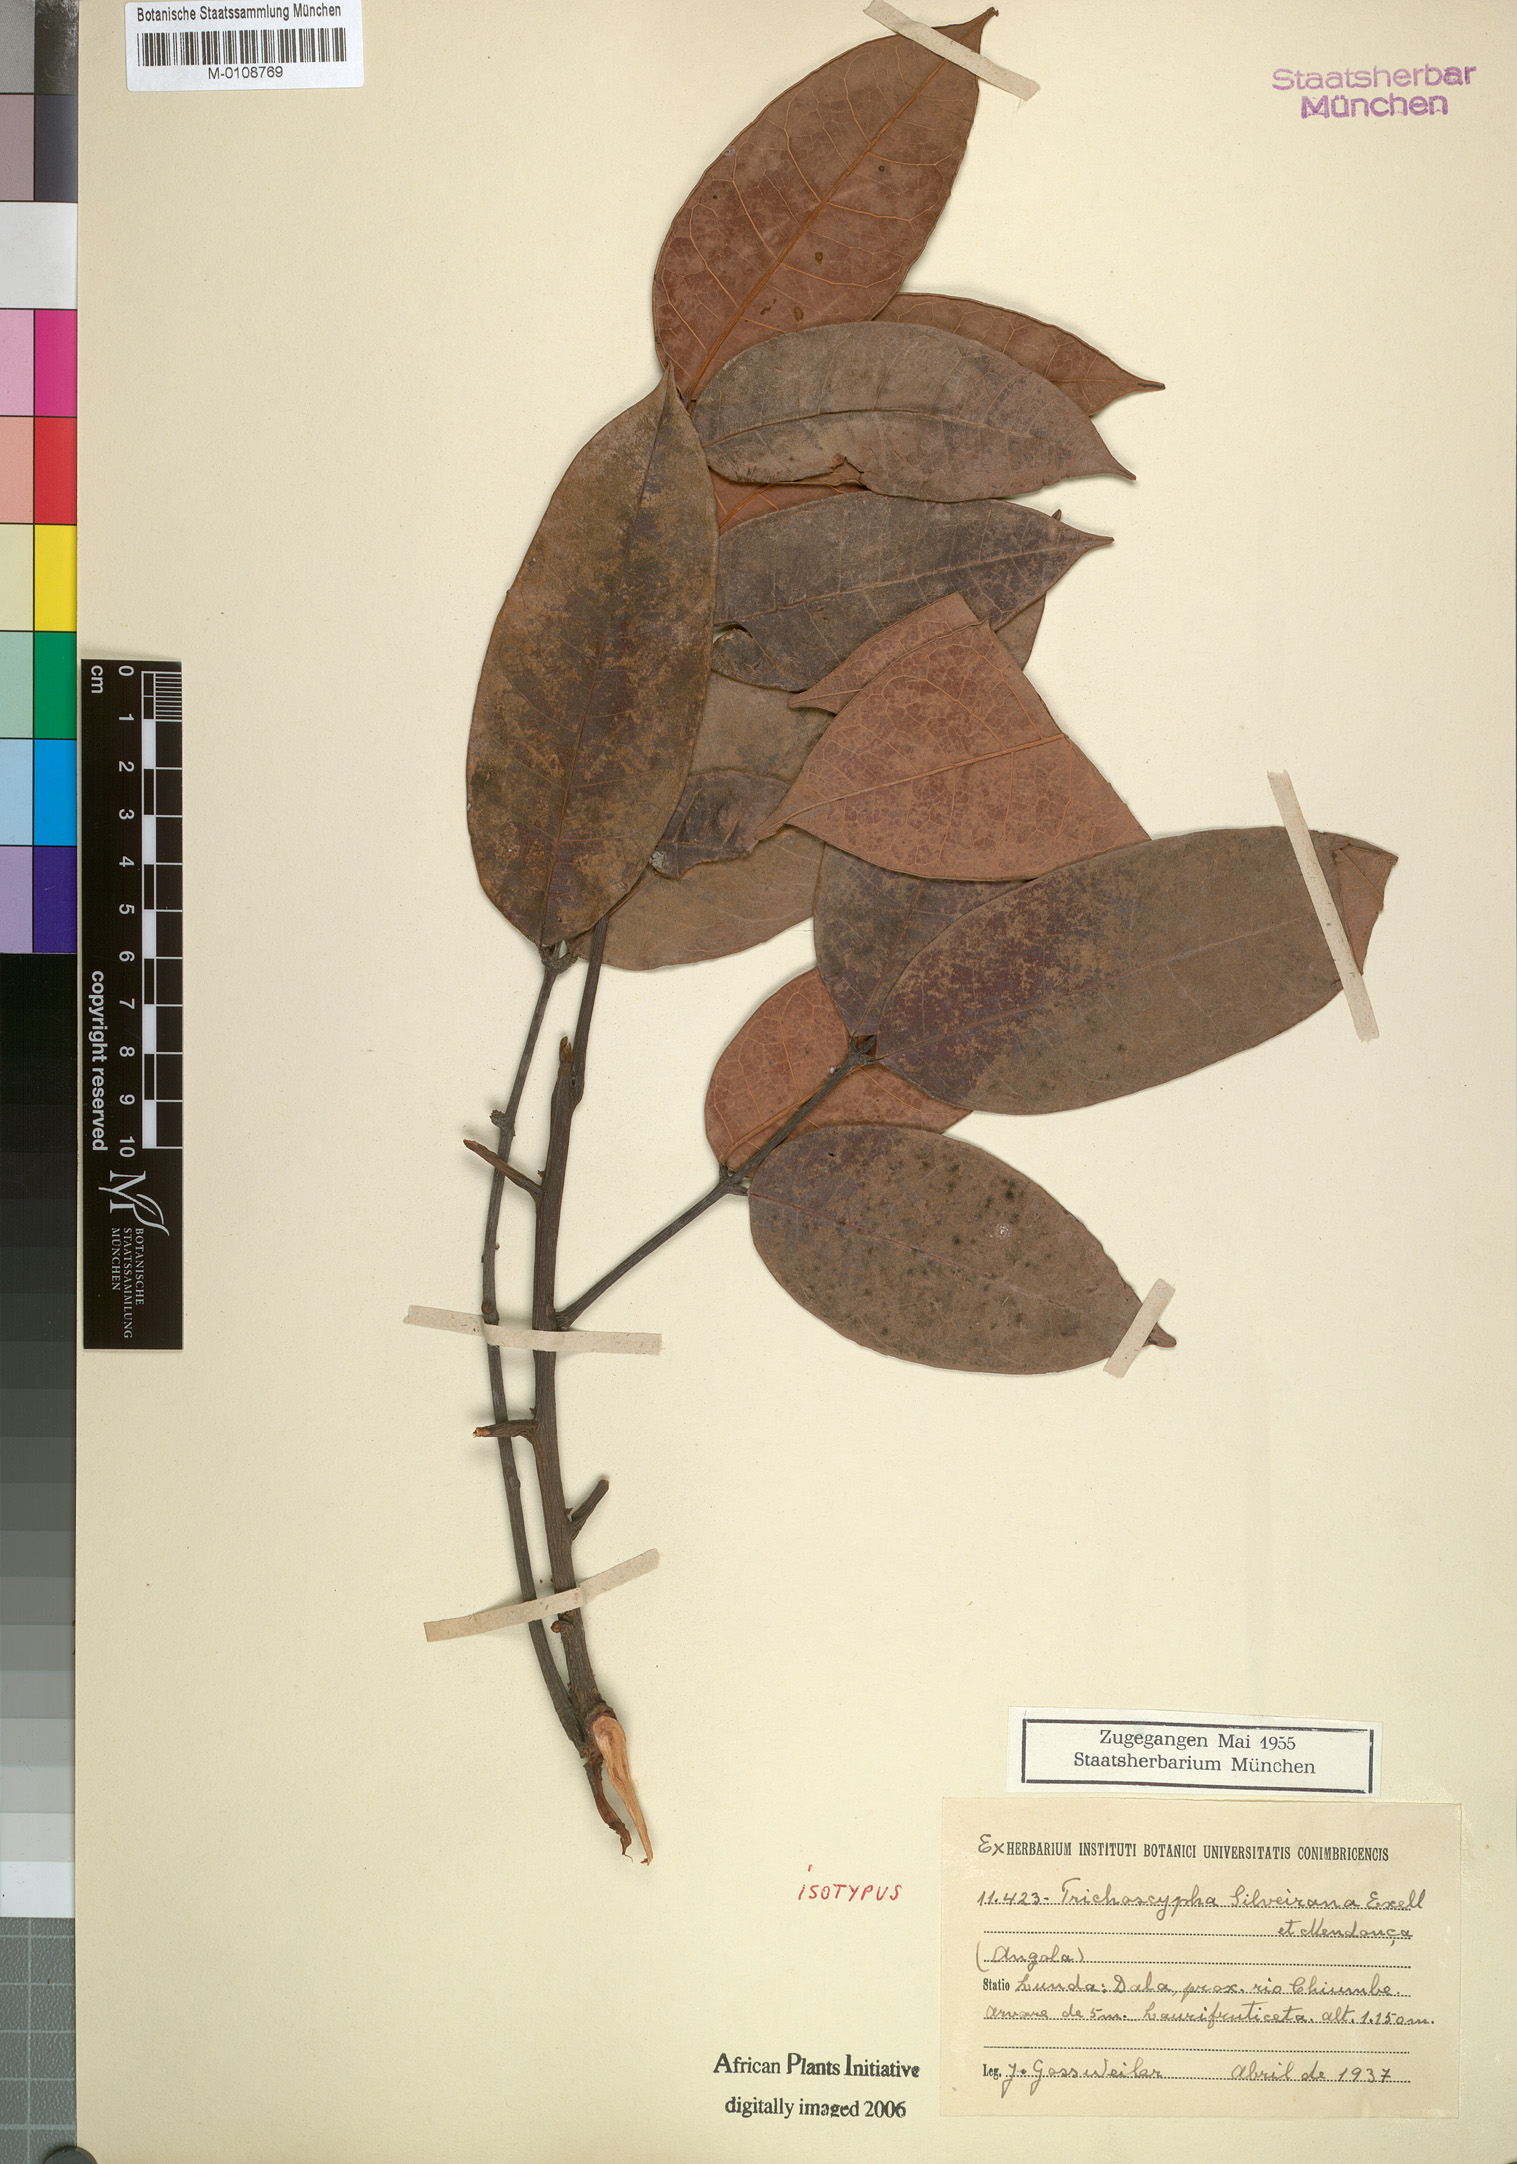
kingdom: Plantae
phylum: Tracheophyta
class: Magnoliopsida
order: Sapindales
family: Anacardiaceae
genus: Trichoscypha
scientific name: Trichoscypha lucens
